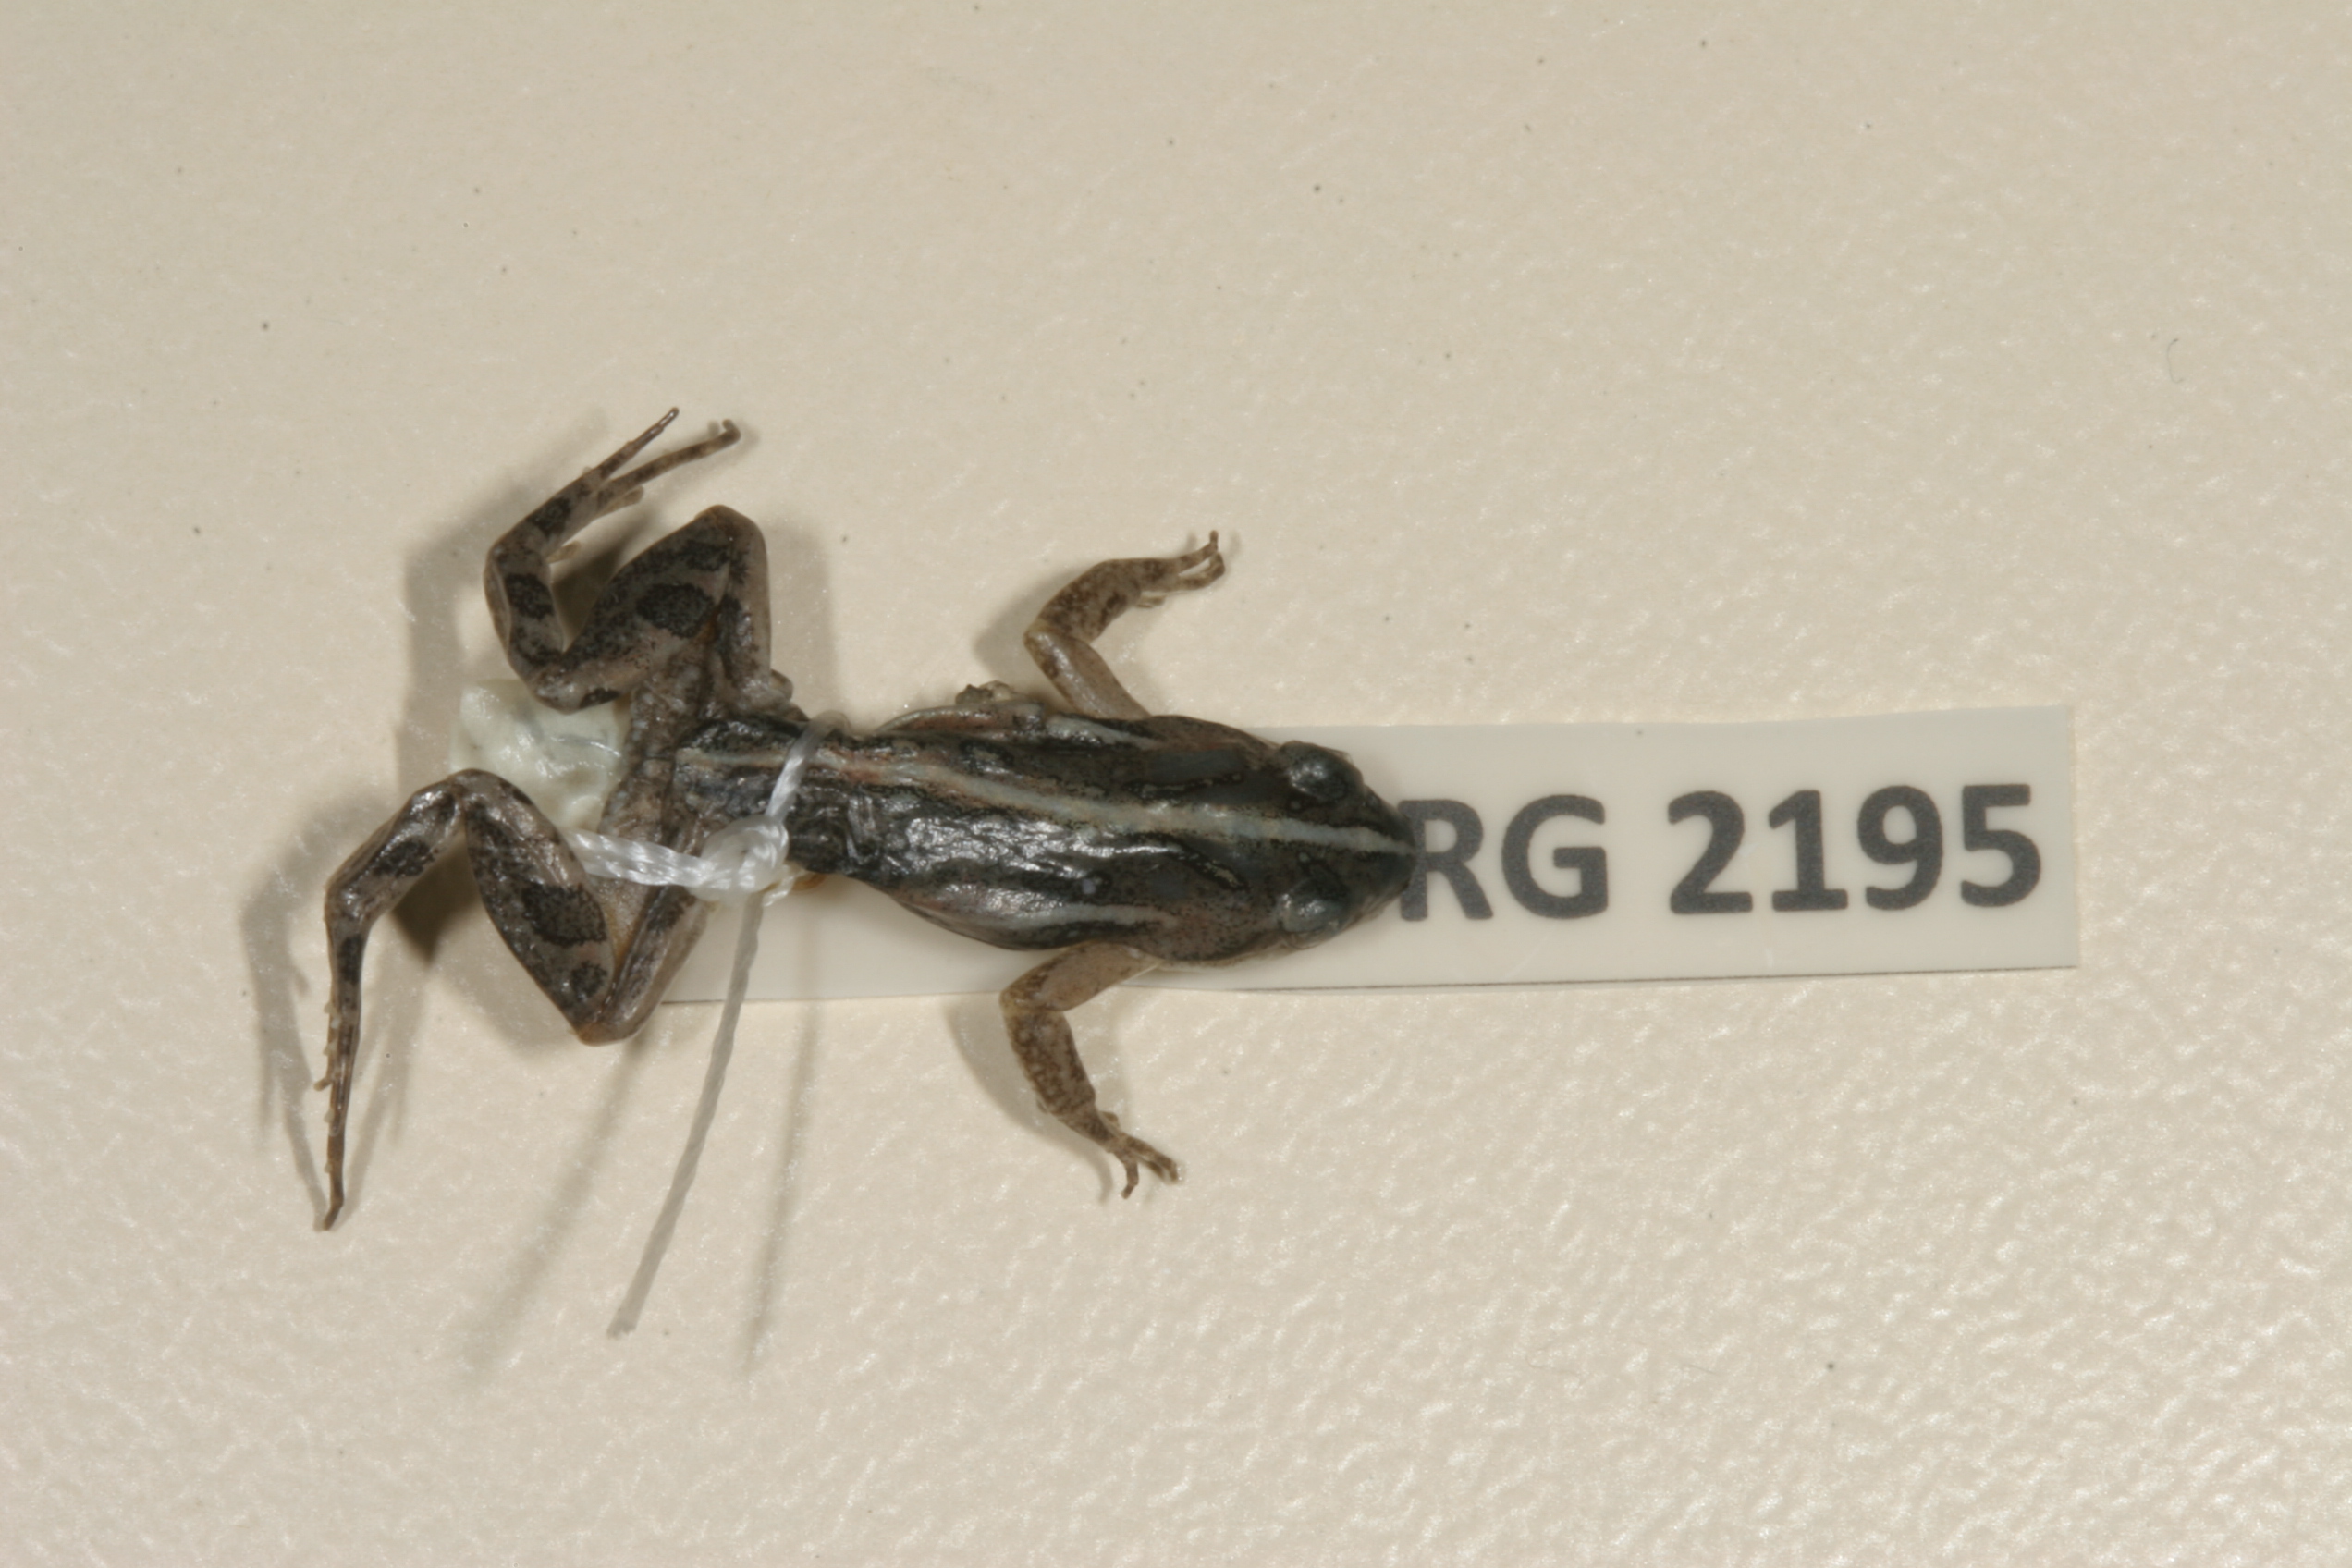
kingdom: Animalia
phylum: Chordata
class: Amphibia
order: Anura
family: Pyxicephalidae
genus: Cacosternum
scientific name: Cacosternum boettgeri
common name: Boettger's frog
